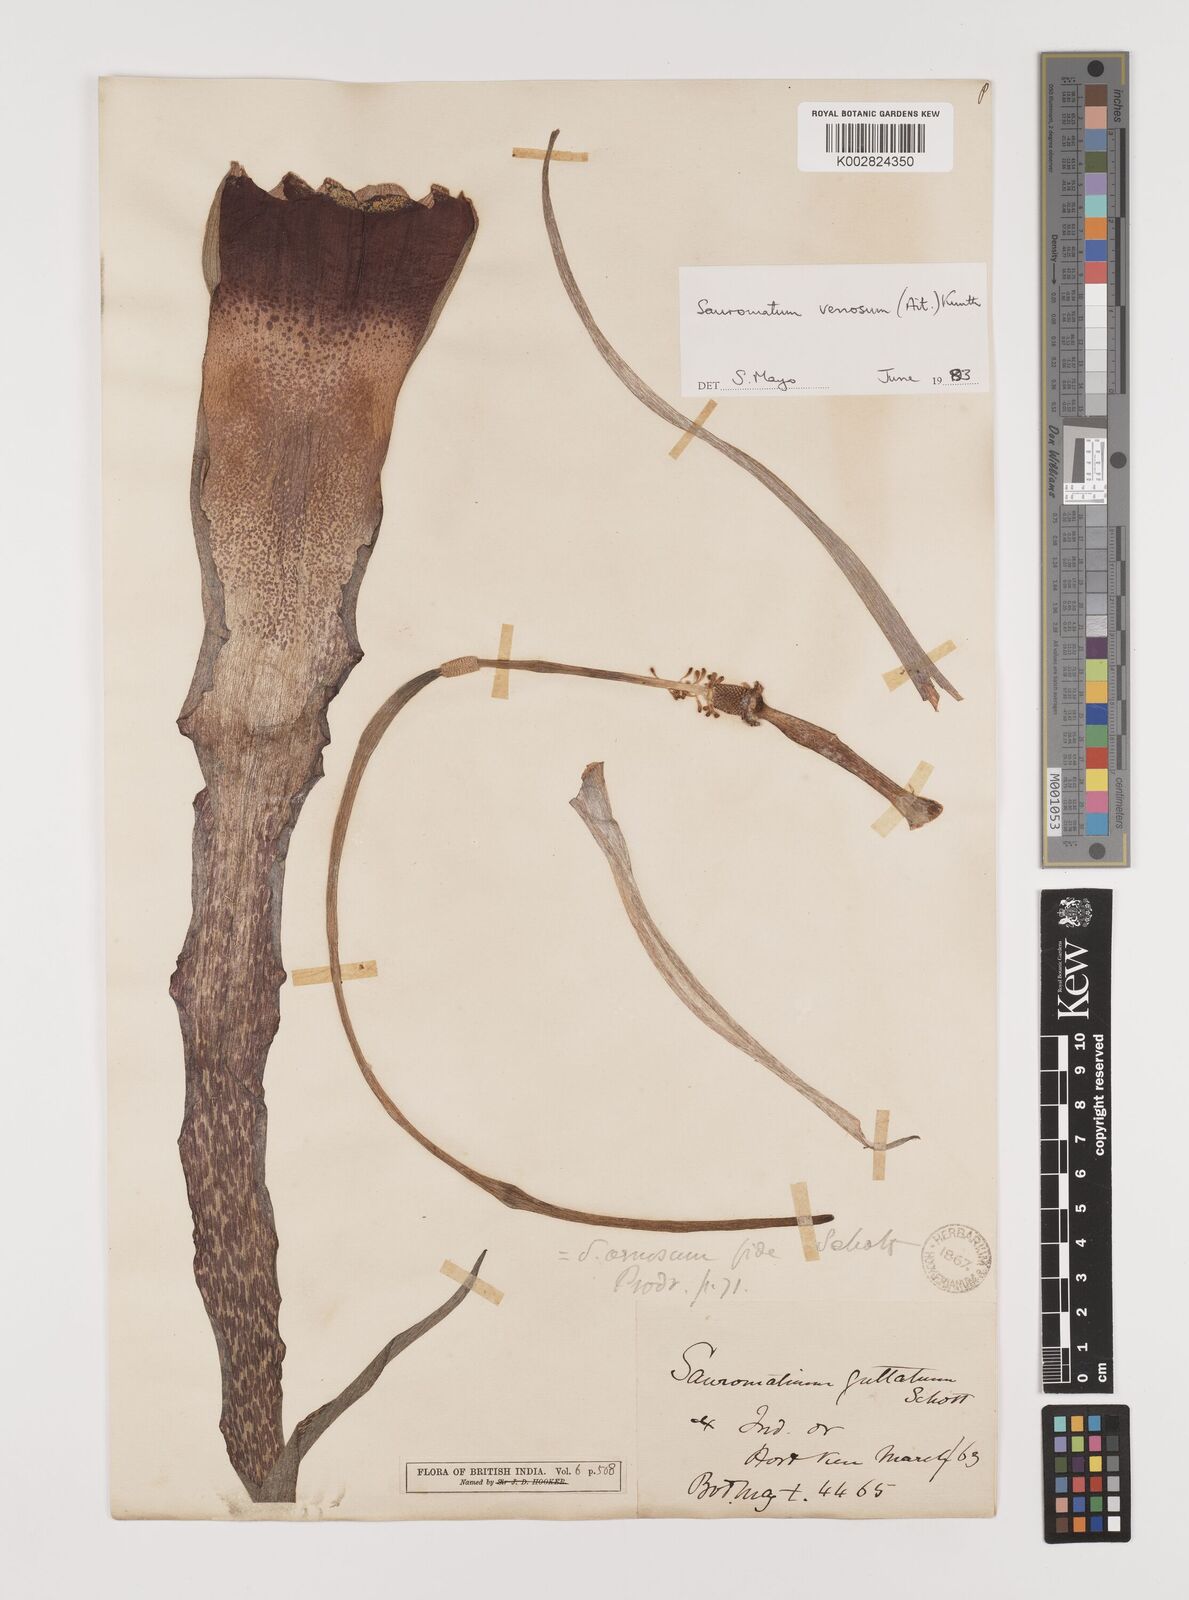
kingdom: Plantae
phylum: Tracheophyta
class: Liliopsida
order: Alismatales
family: Araceae
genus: Sauromatum
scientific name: Sauromatum venosum
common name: Voodoo lily
